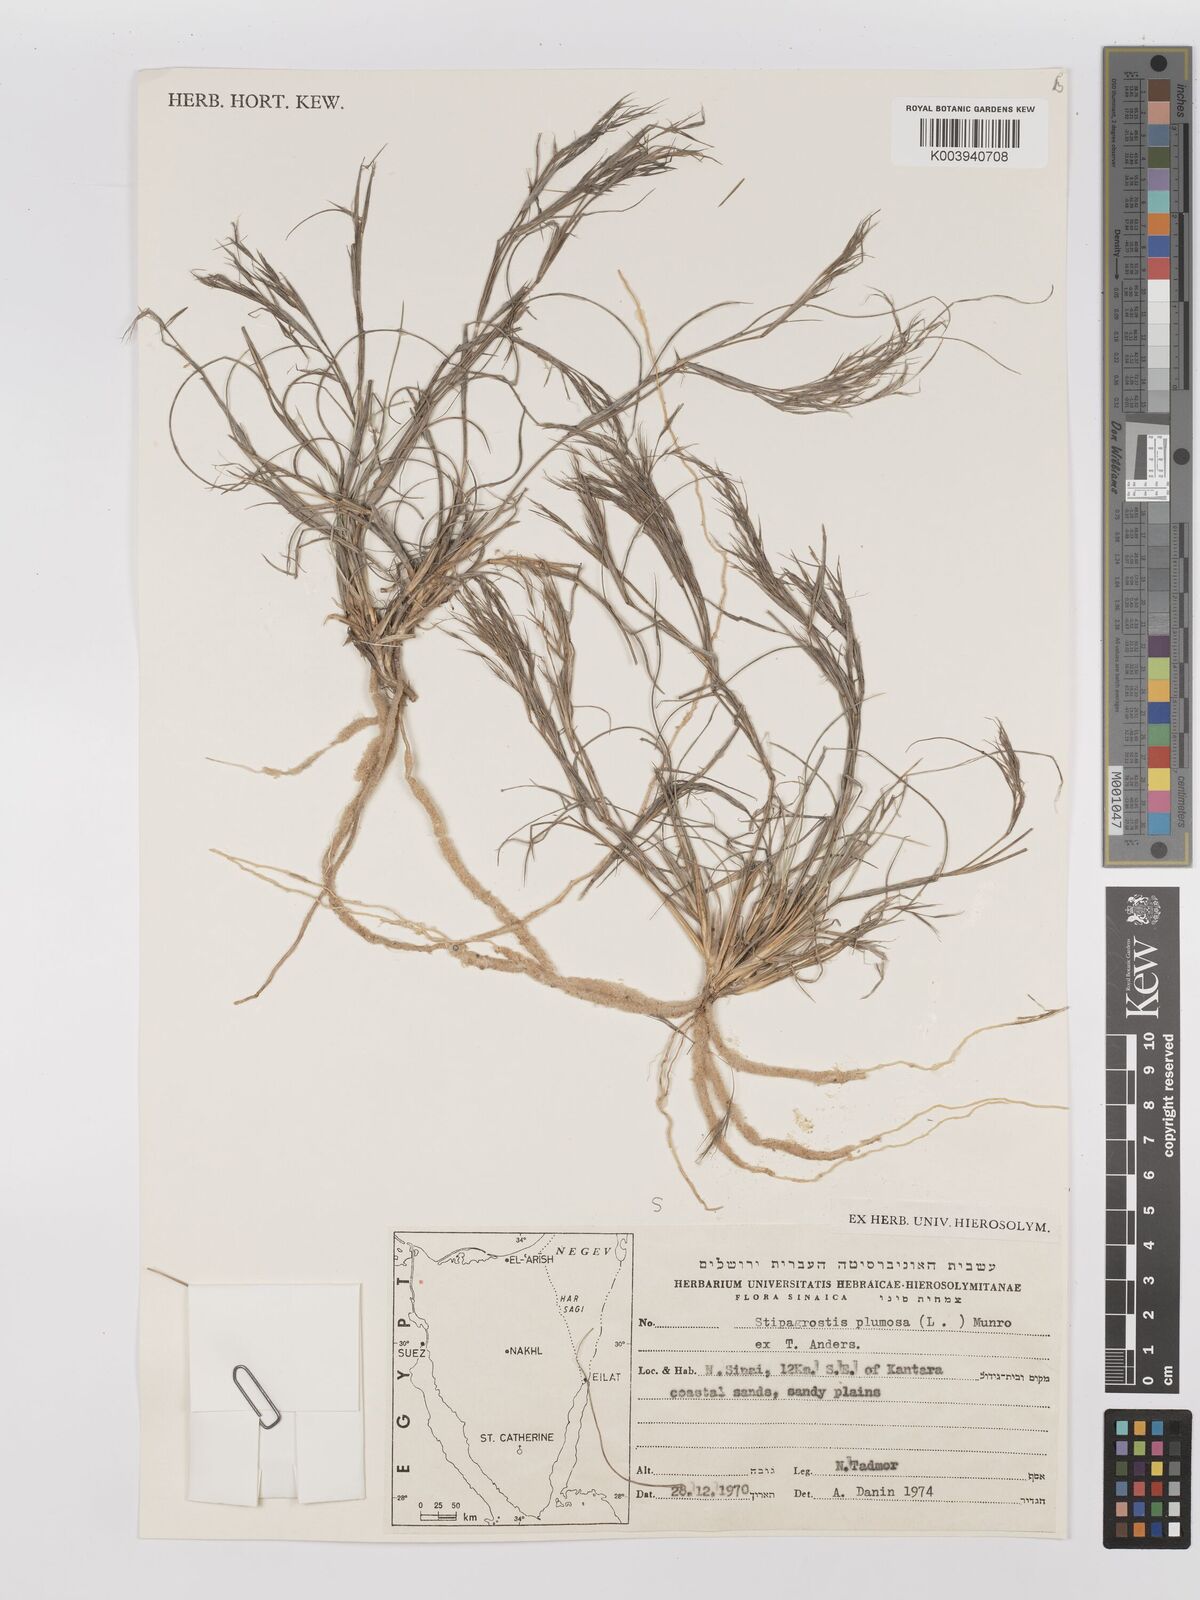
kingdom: Plantae
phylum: Tracheophyta
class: Liliopsida
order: Poales
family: Poaceae
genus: Stipagrostis
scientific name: Stipagrostis plumosa
